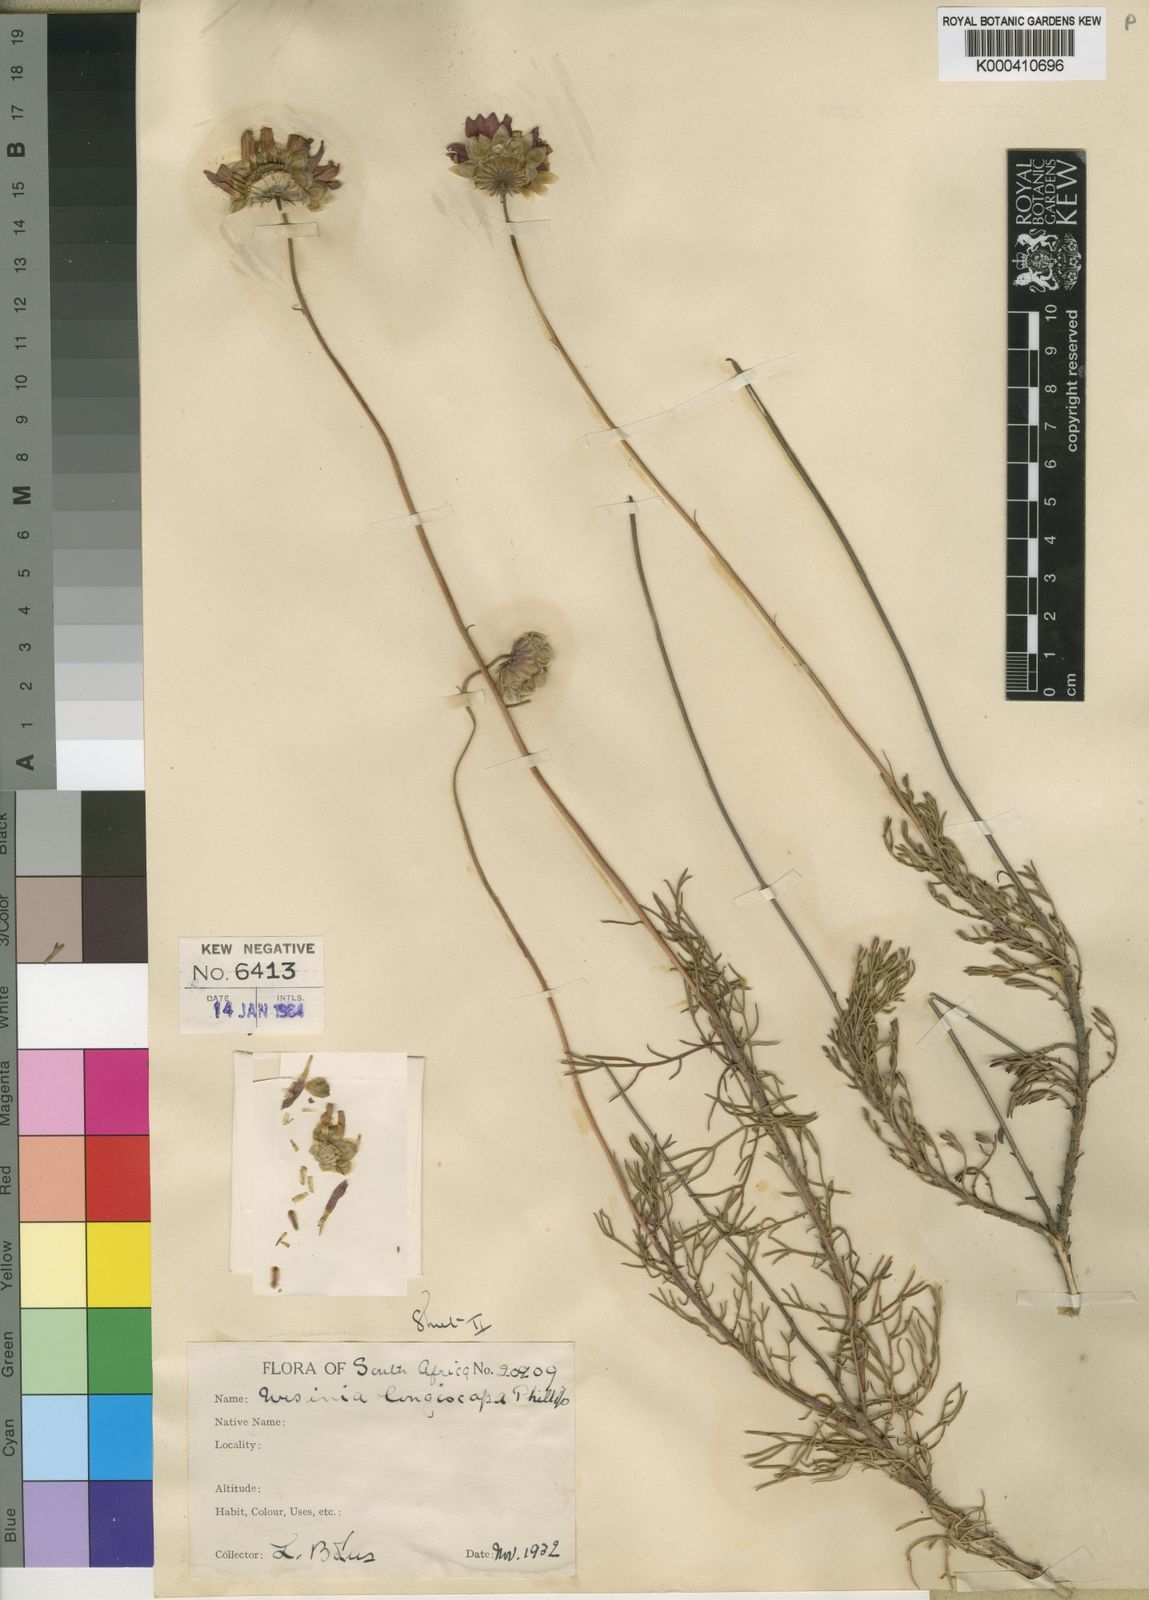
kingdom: Plantae
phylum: Tracheophyta
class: Magnoliopsida
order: Asterales
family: Asteraceae
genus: Ursinia
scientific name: Ursinia paleacea
